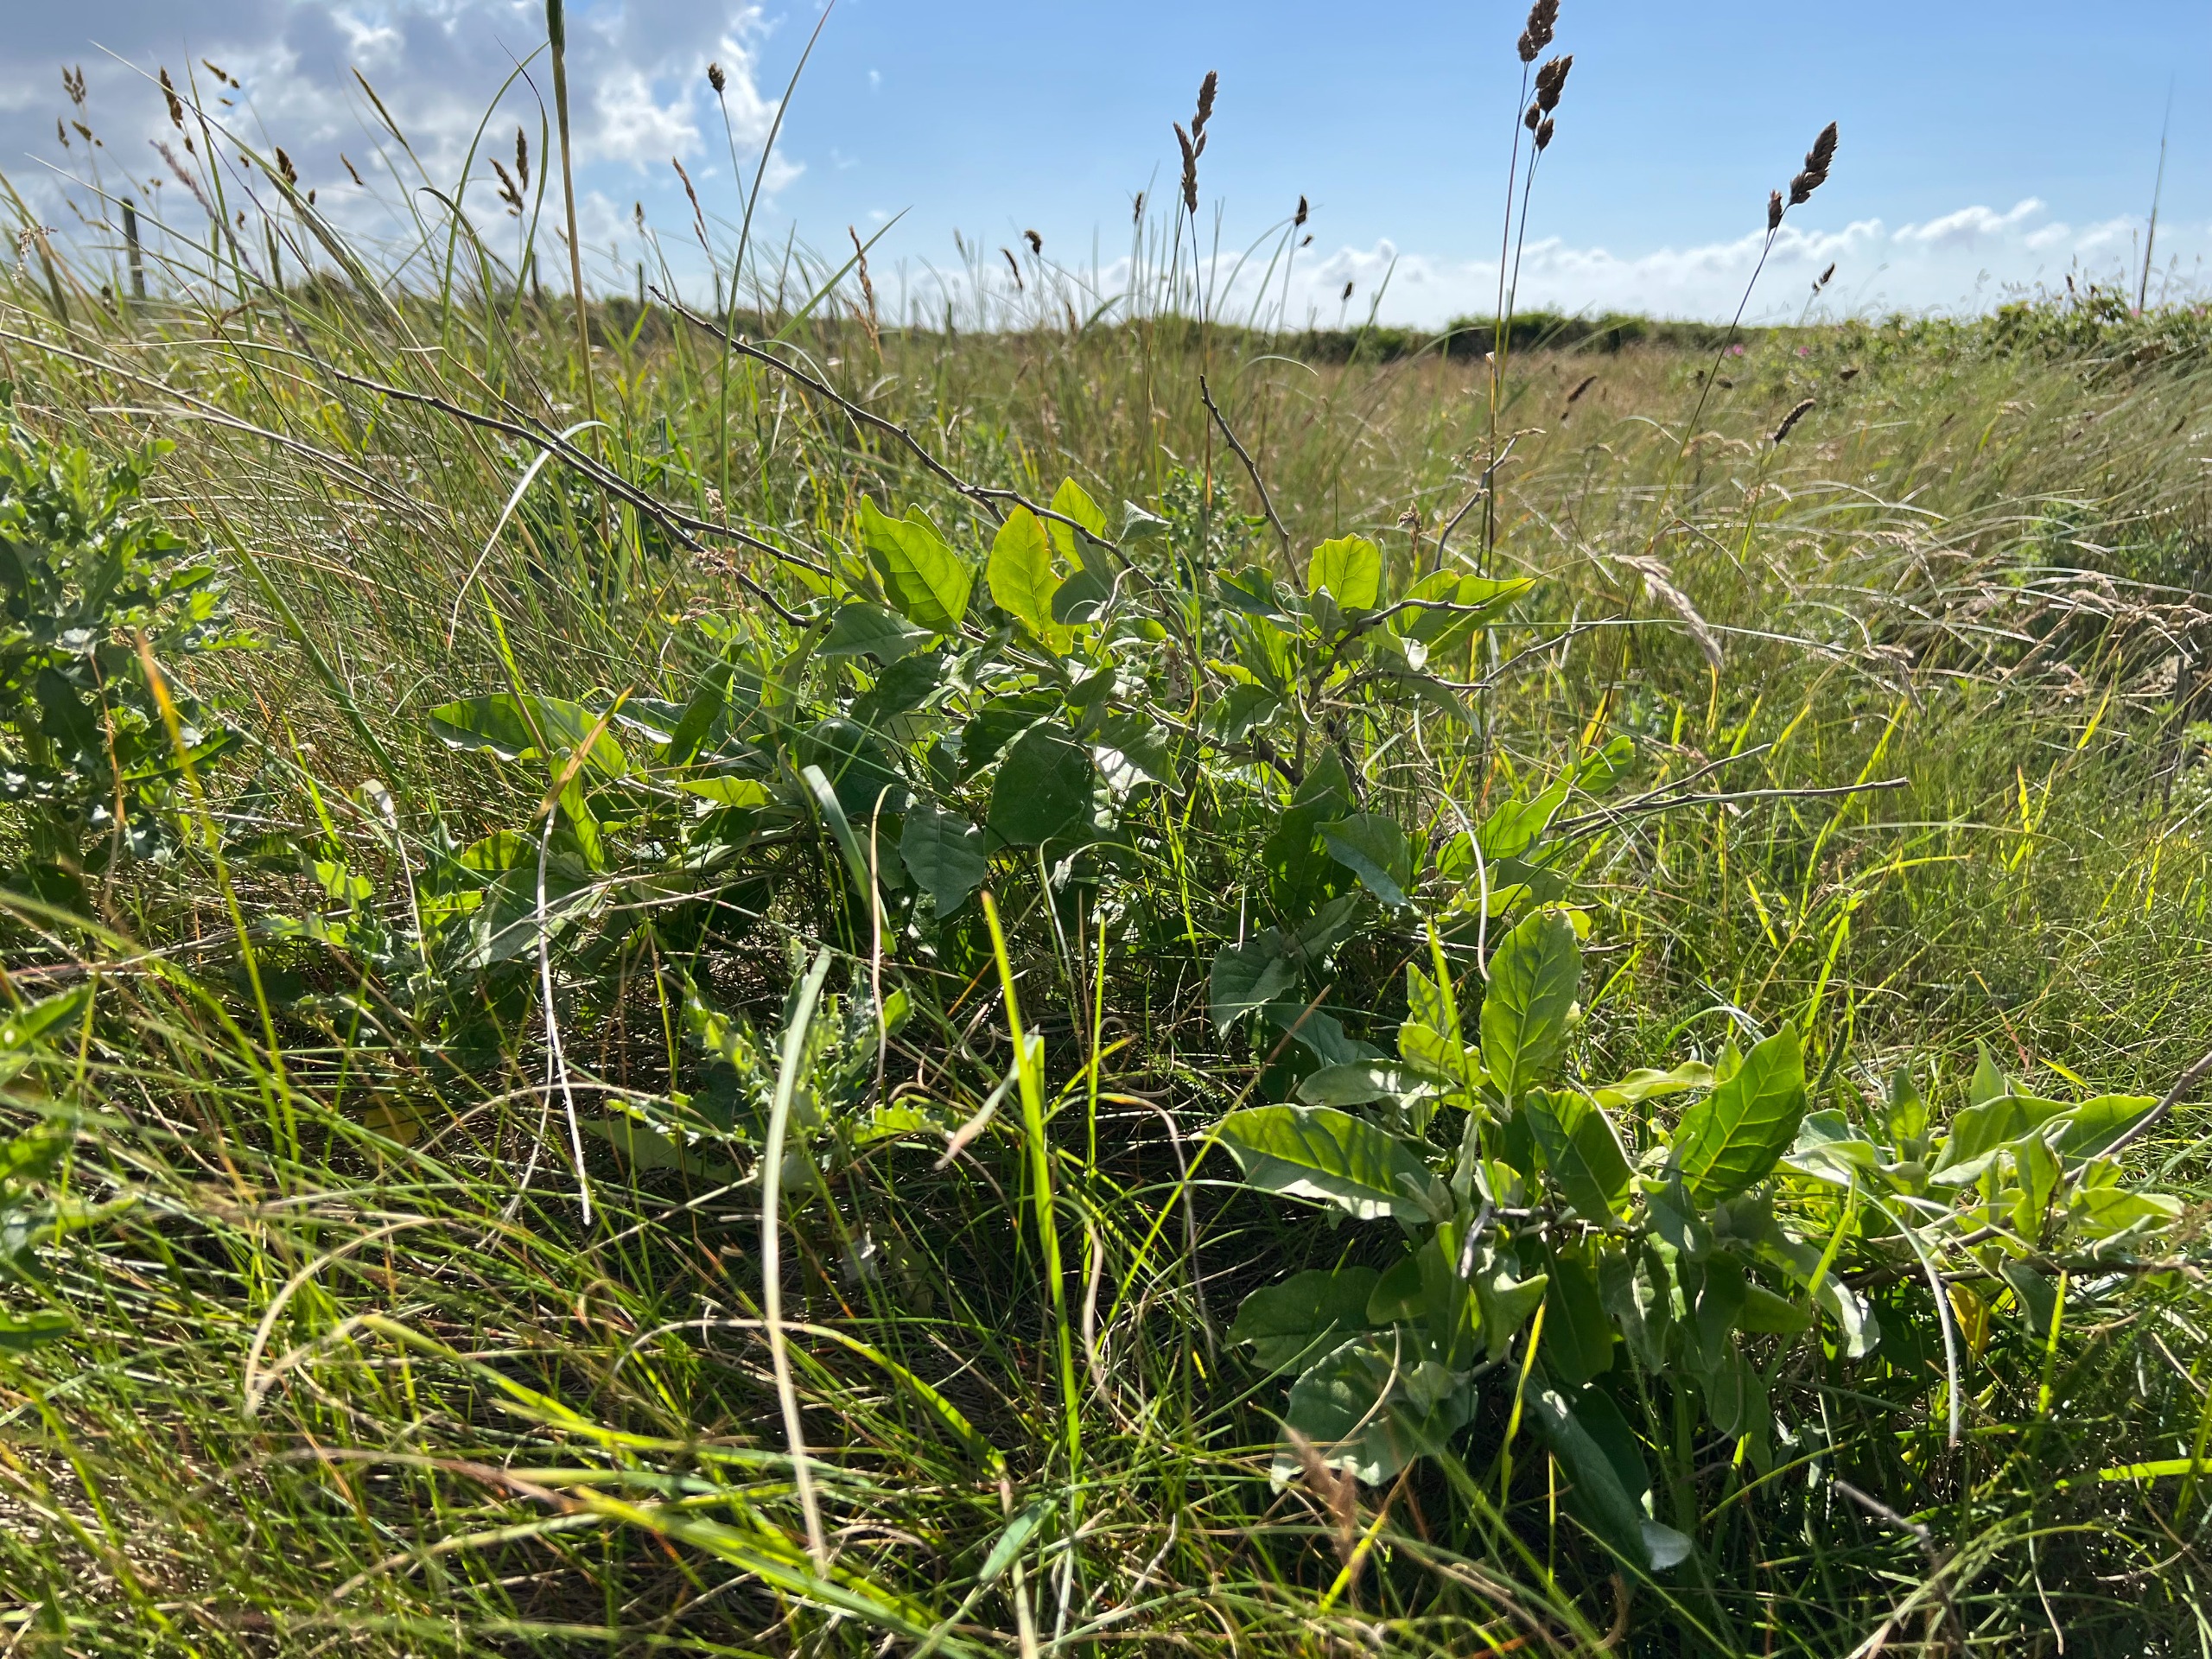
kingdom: Plantae
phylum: Tracheophyta
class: Magnoliopsida
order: Rosales
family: Elaeagnaceae
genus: Elaeagnus
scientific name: Elaeagnus umbellata
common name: Skærm-sølvblad
